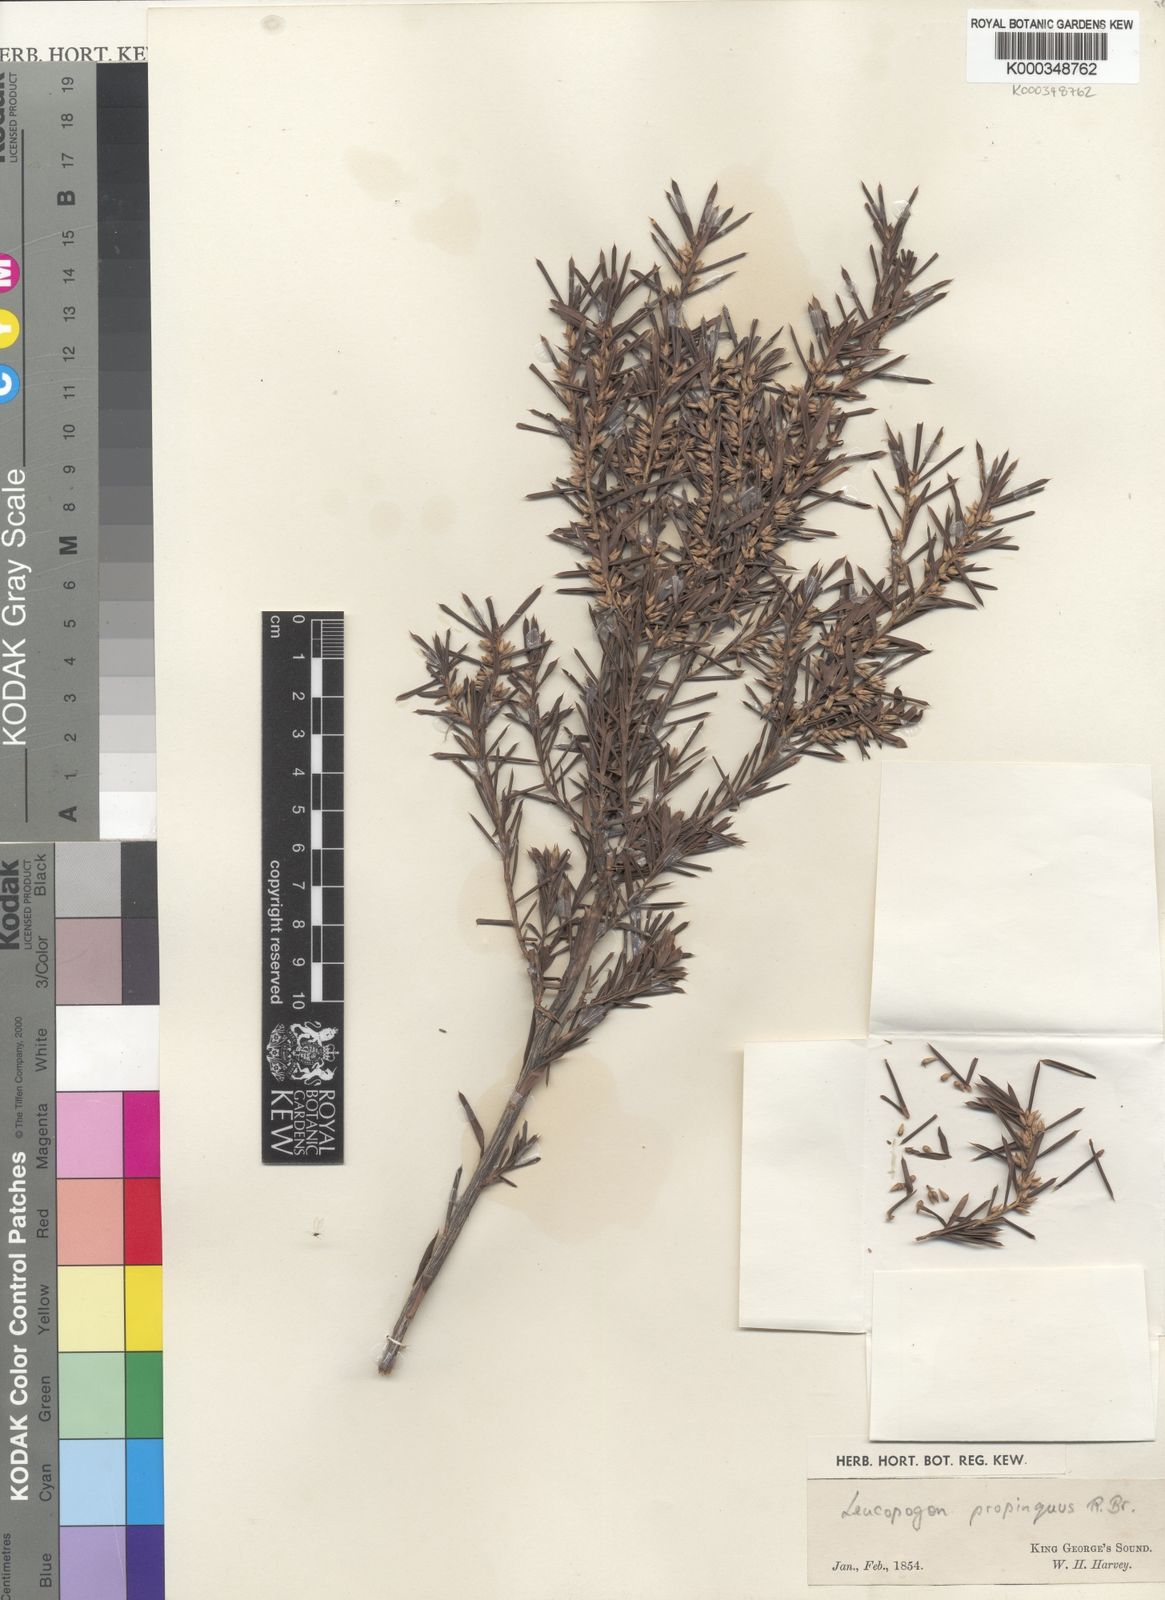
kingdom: Plantae
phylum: Tracheophyta
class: Magnoliopsida
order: Ericales
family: Ericaceae
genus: Styphelia
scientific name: Styphelia propinqua
